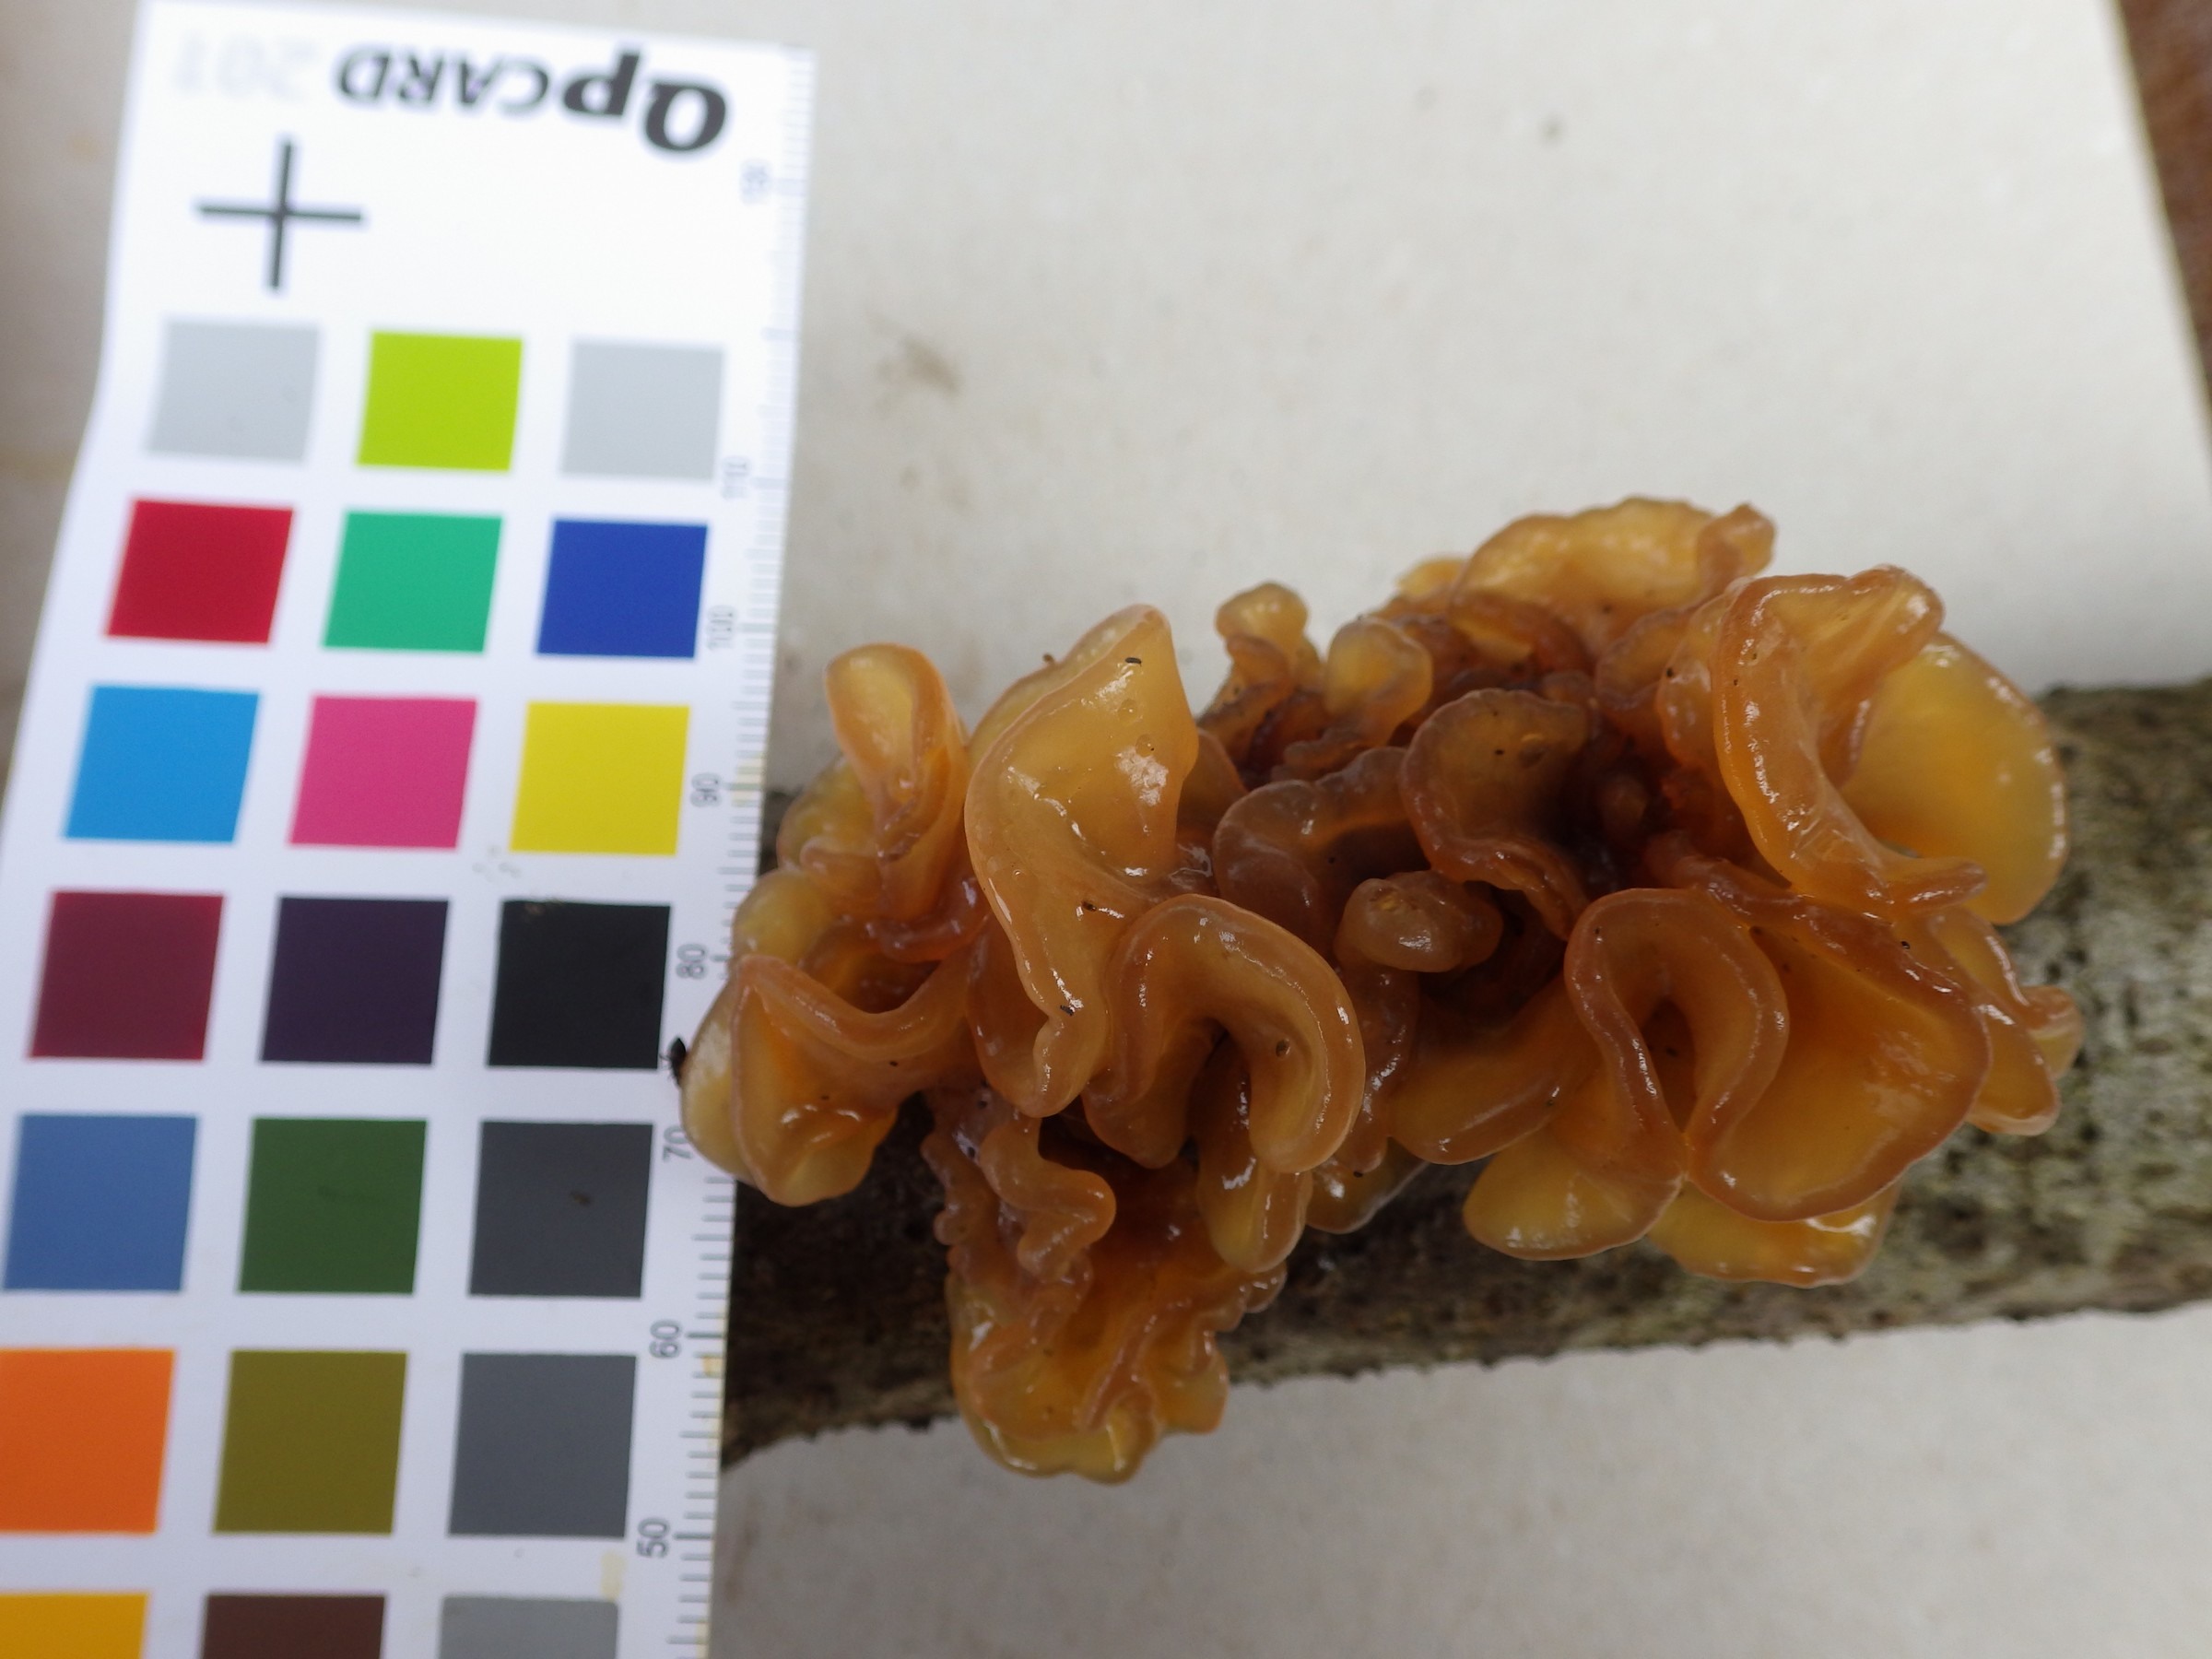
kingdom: Fungi
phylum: Basidiomycota
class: Tremellomycetes
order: Tremellales
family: Tremellaceae
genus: Phaeotremella
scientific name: Phaeotremella foliacea
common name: Leafy brain
